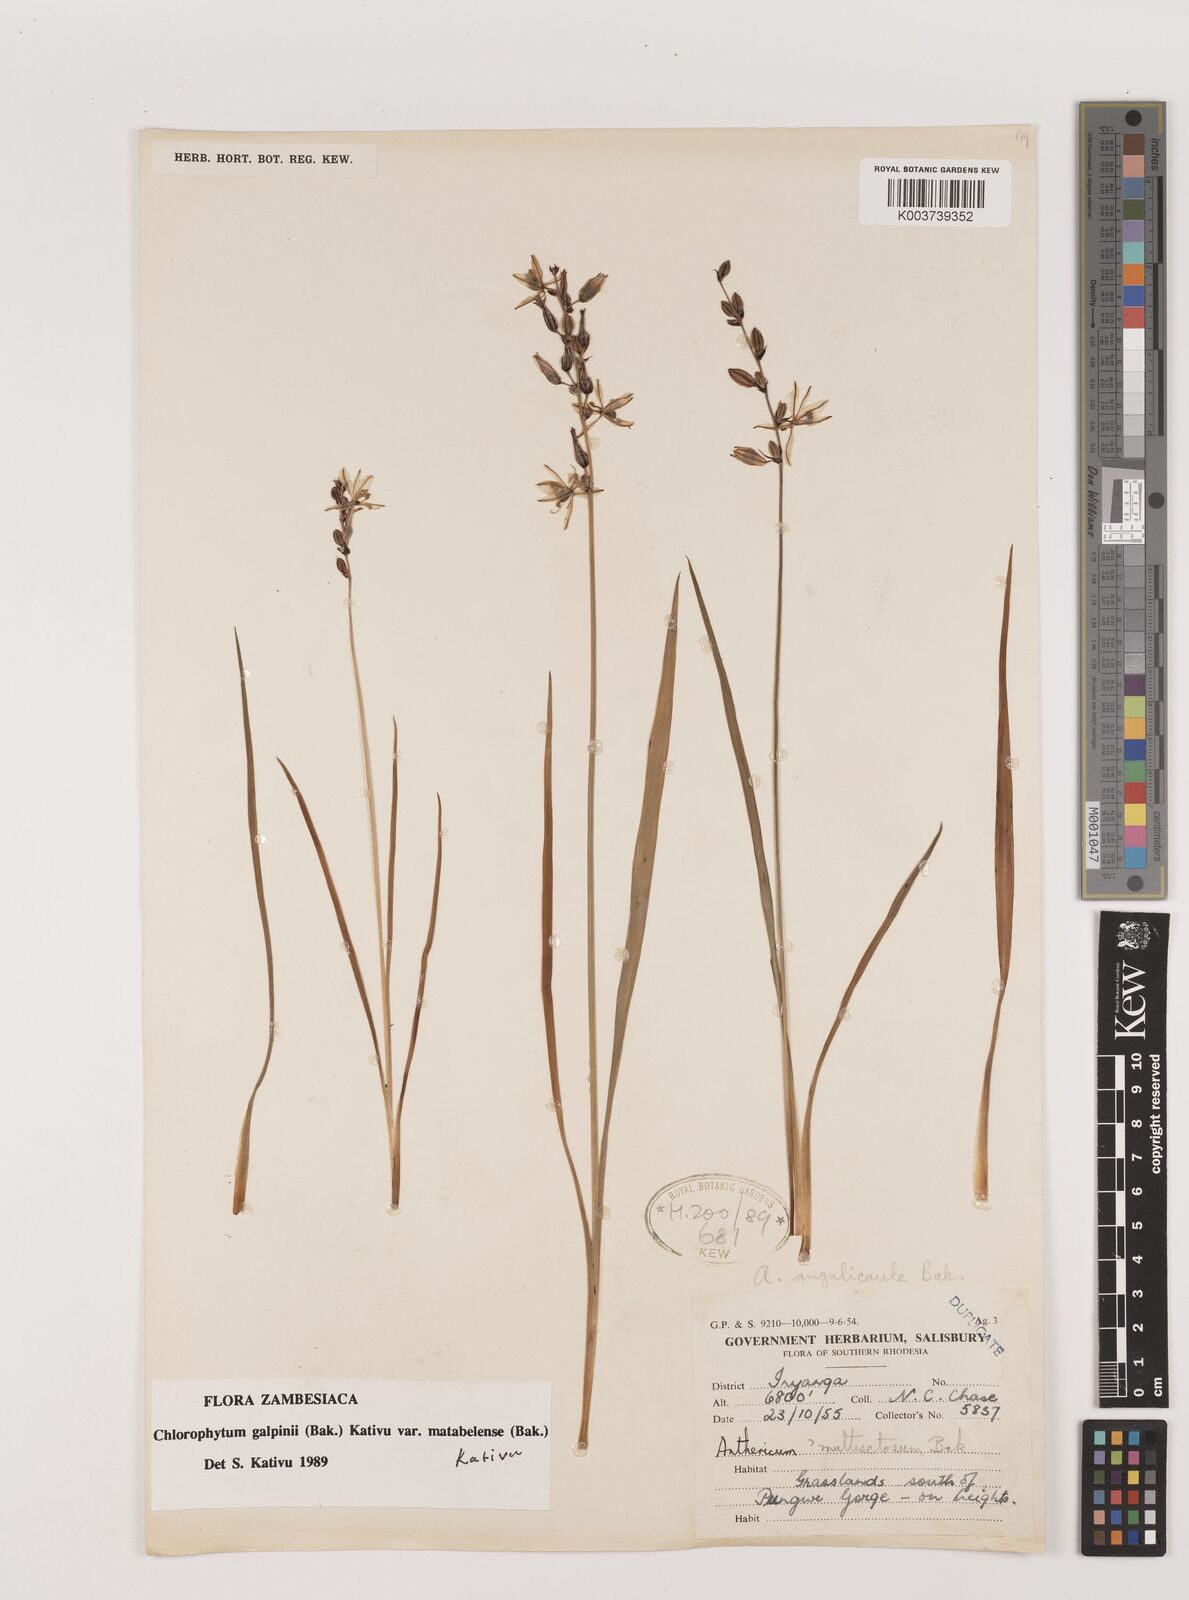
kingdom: Plantae
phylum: Tracheophyta
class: Liliopsida
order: Asparagales
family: Asparagaceae
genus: Chlorophytum
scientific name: Chlorophytum galpinii
